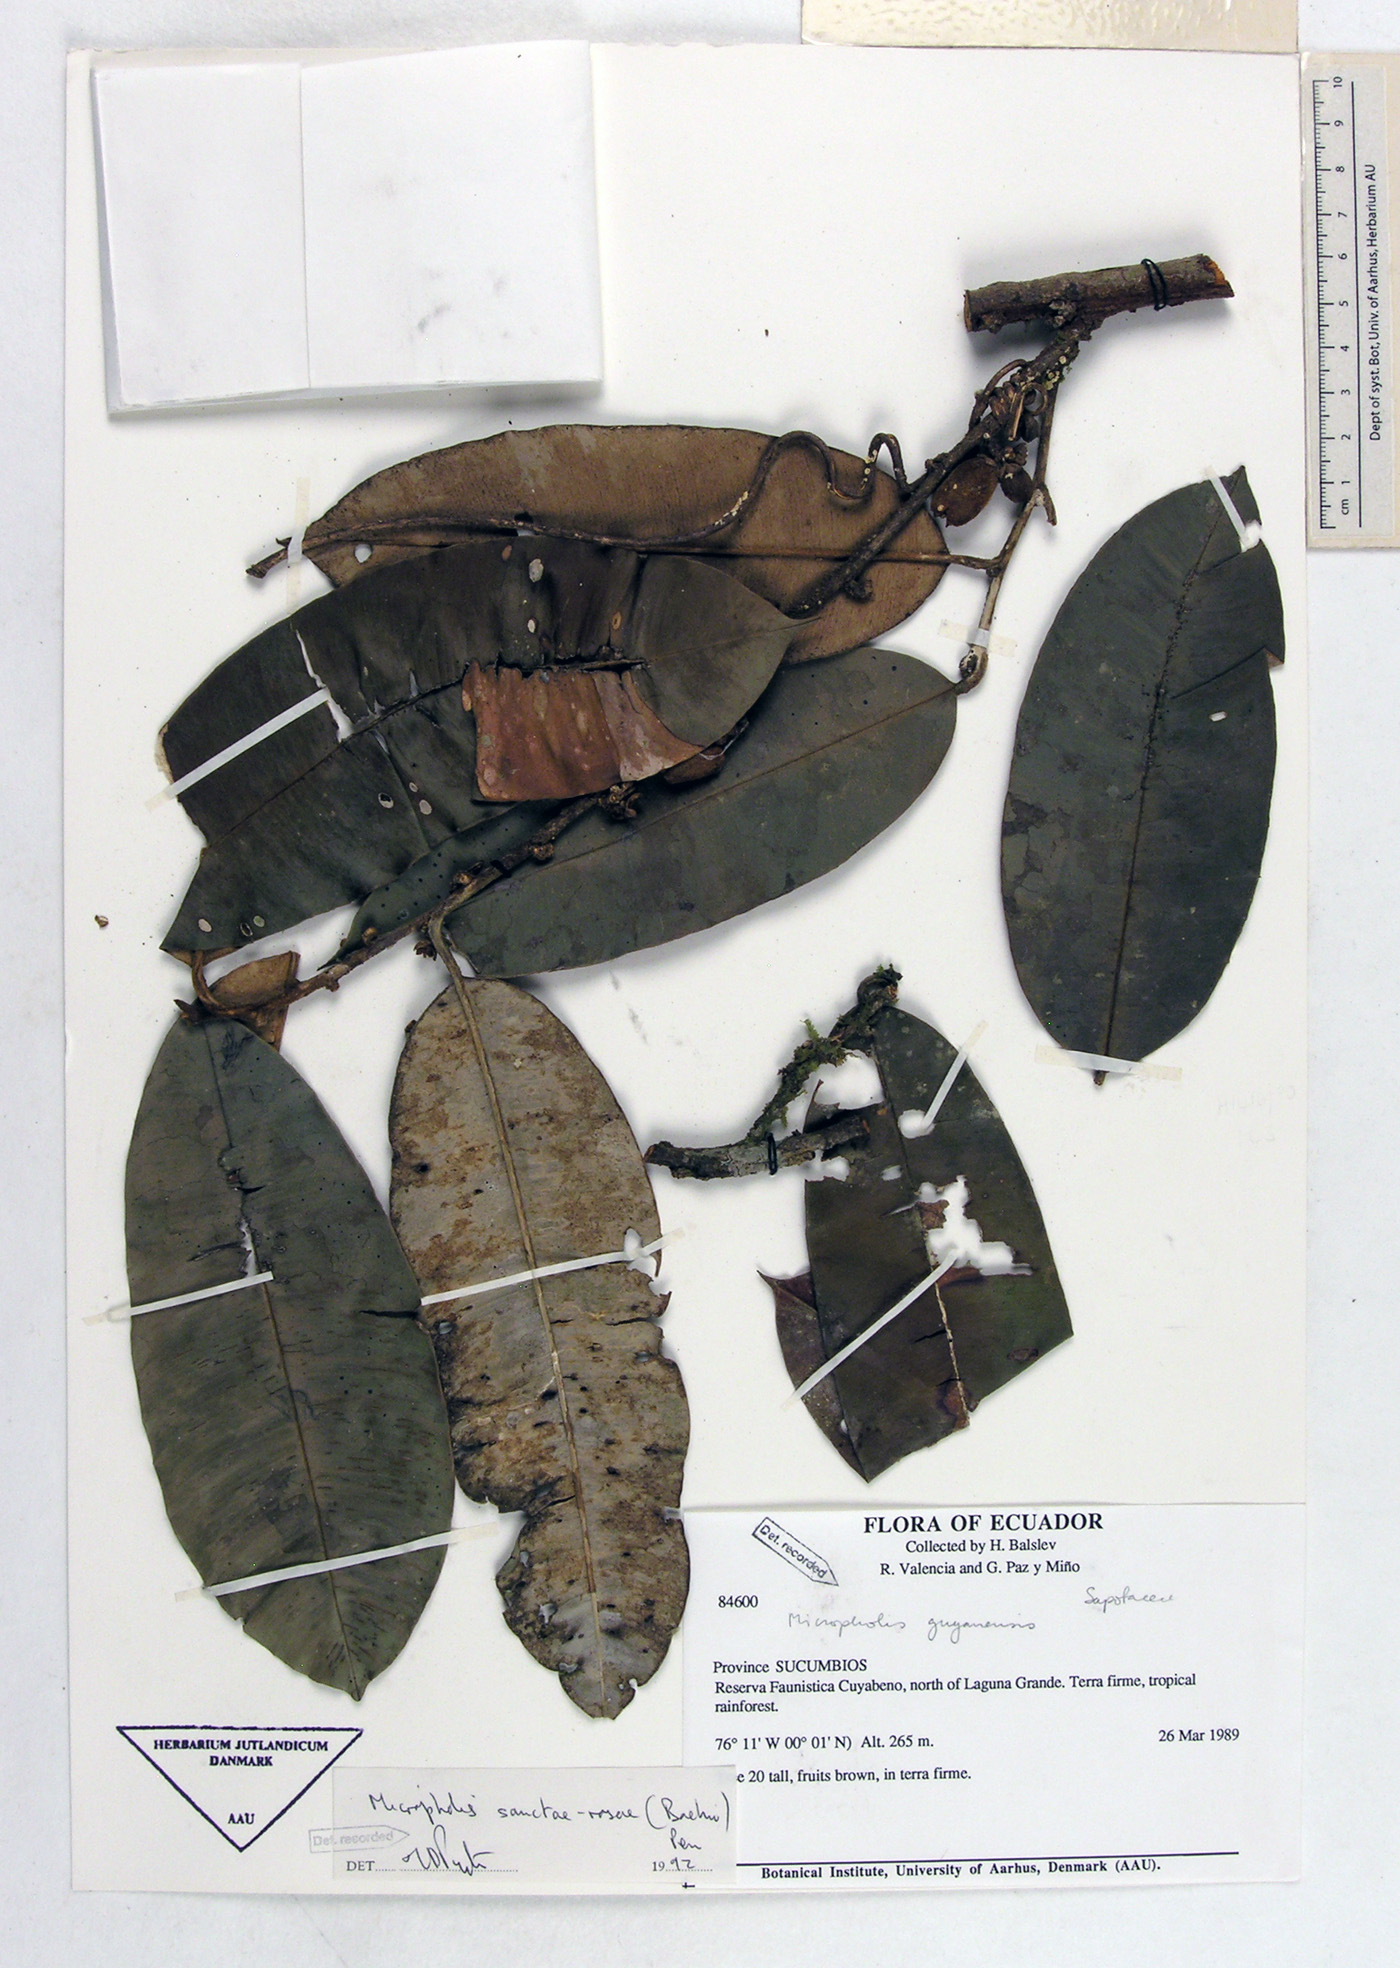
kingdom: Plantae
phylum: Tracheophyta
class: Magnoliopsida
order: Ericales
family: Sapotaceae
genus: Micropholis
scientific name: Micropholis sanctae-rosae
